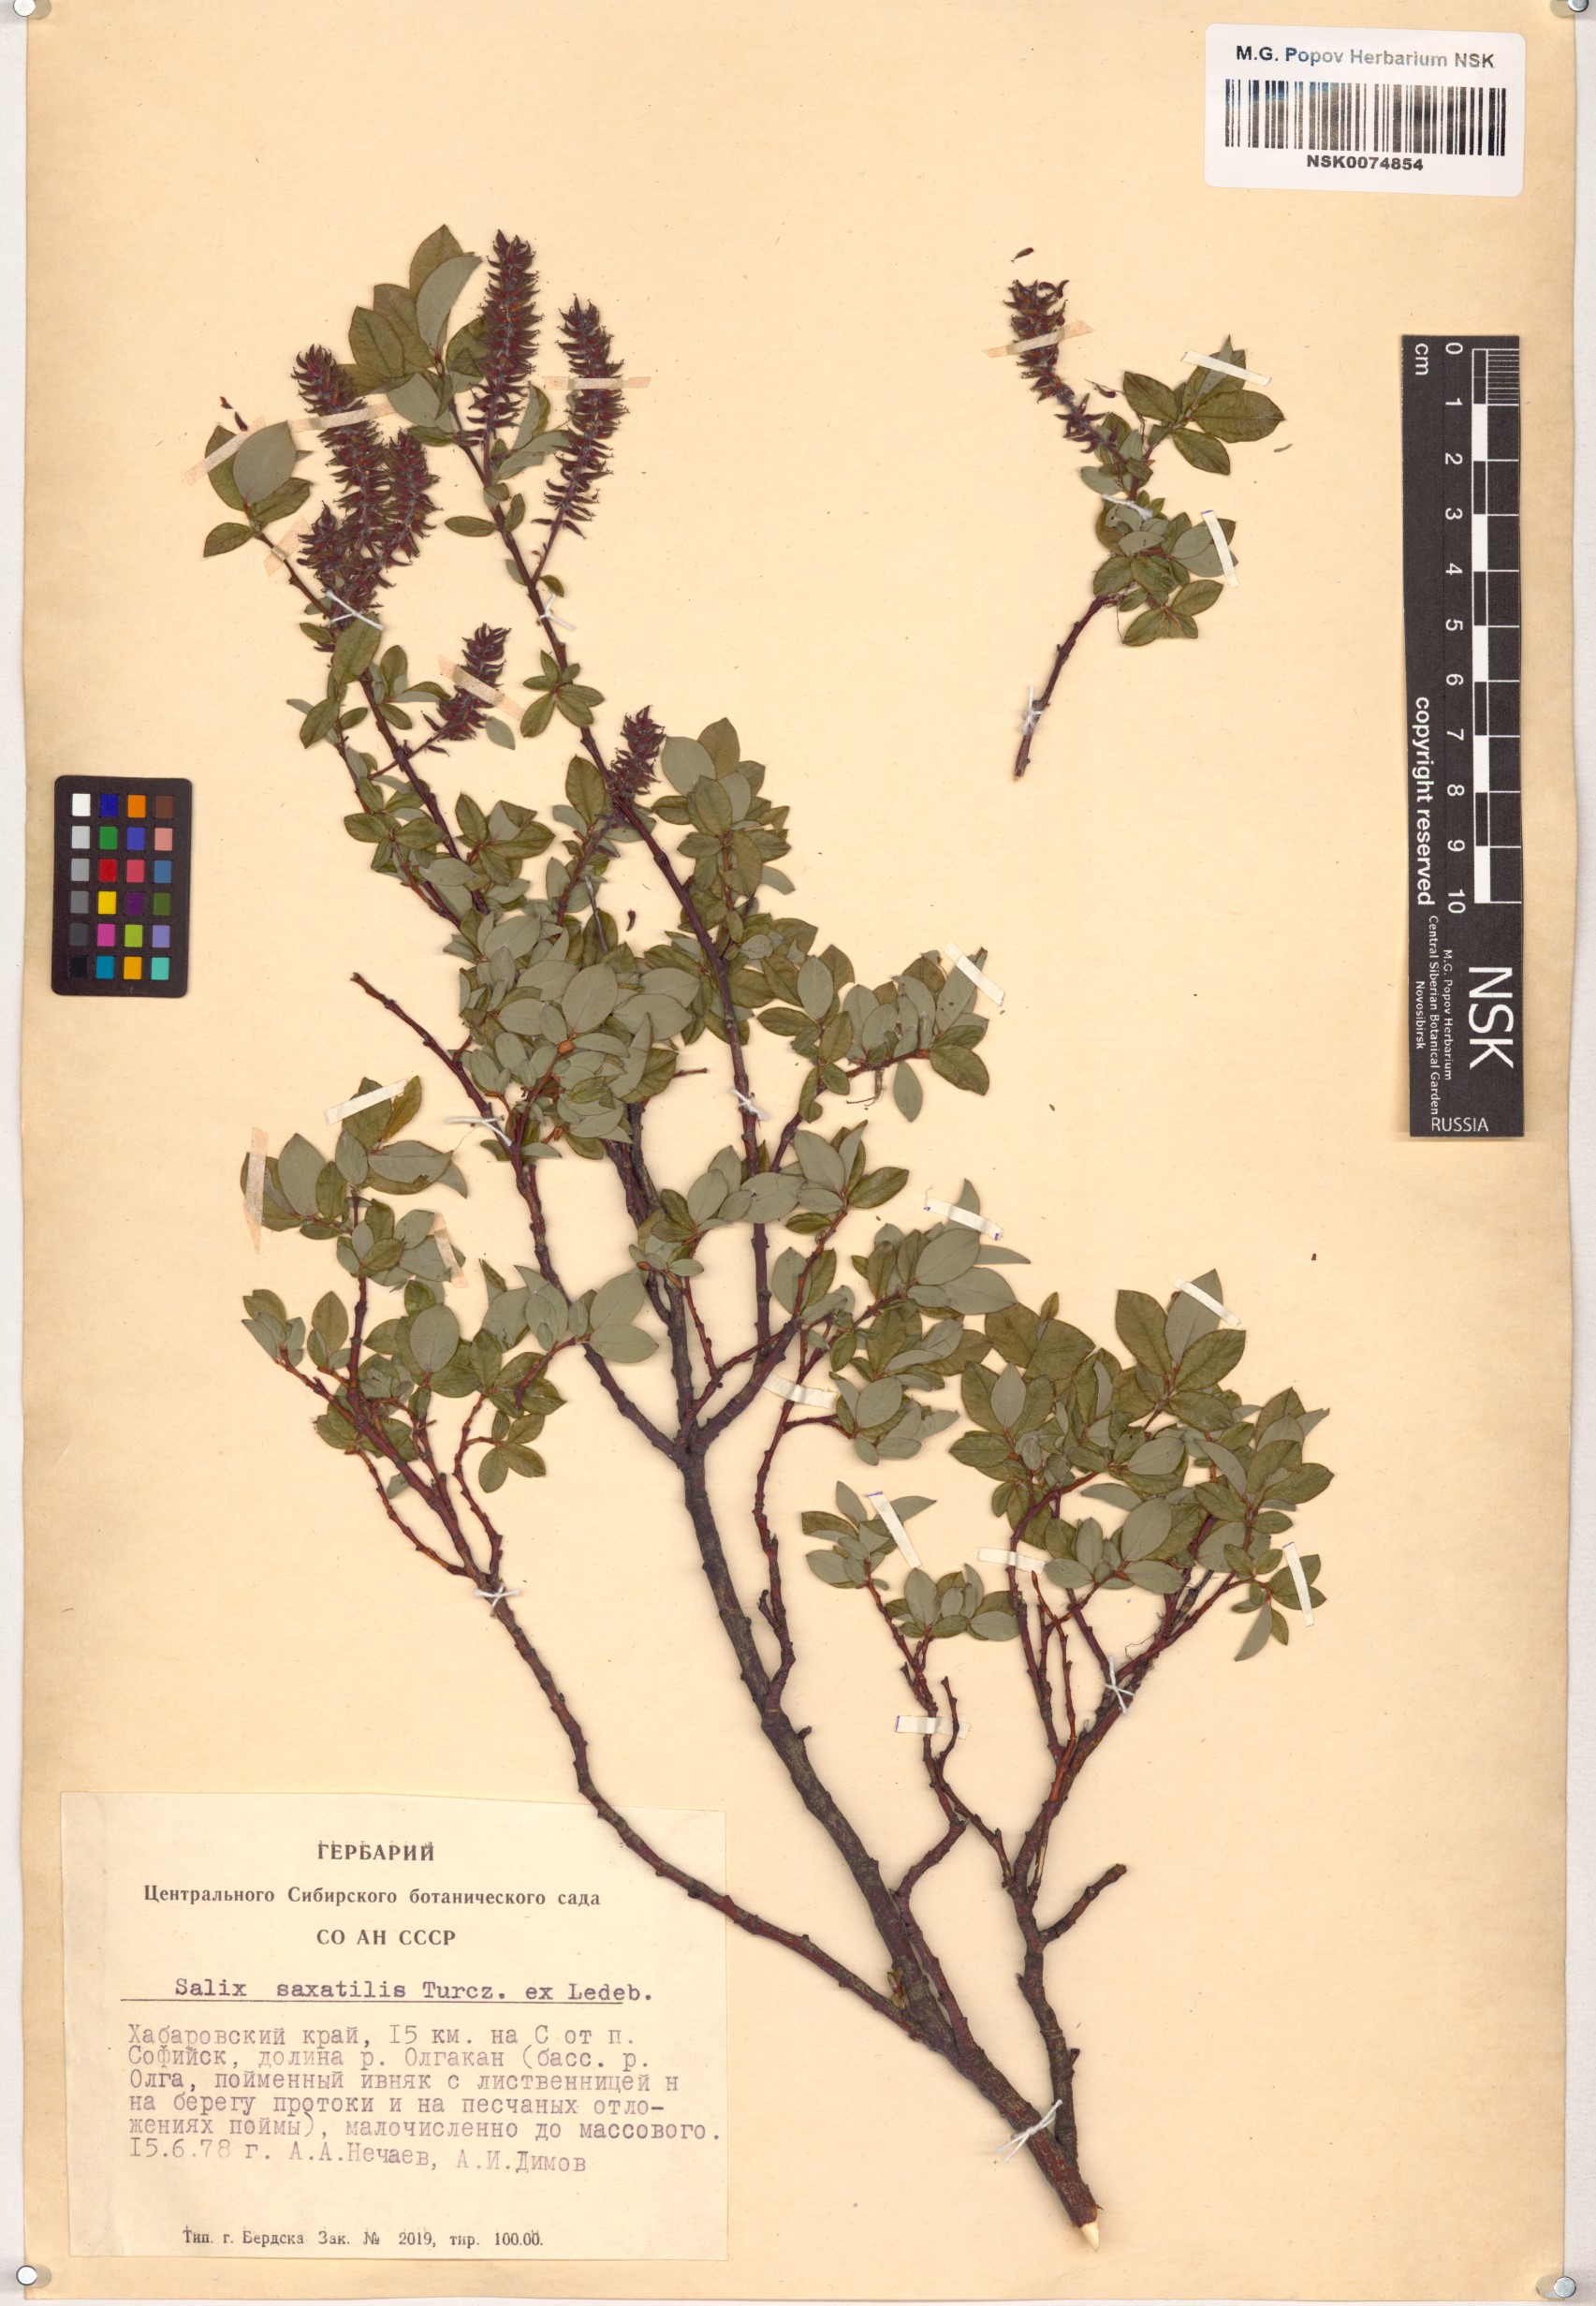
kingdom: Plantae
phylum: Tracheophyta
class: Magnoliopsida
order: Malpighiales
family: Salicaceae
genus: Salix
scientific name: Salix saxatilis
